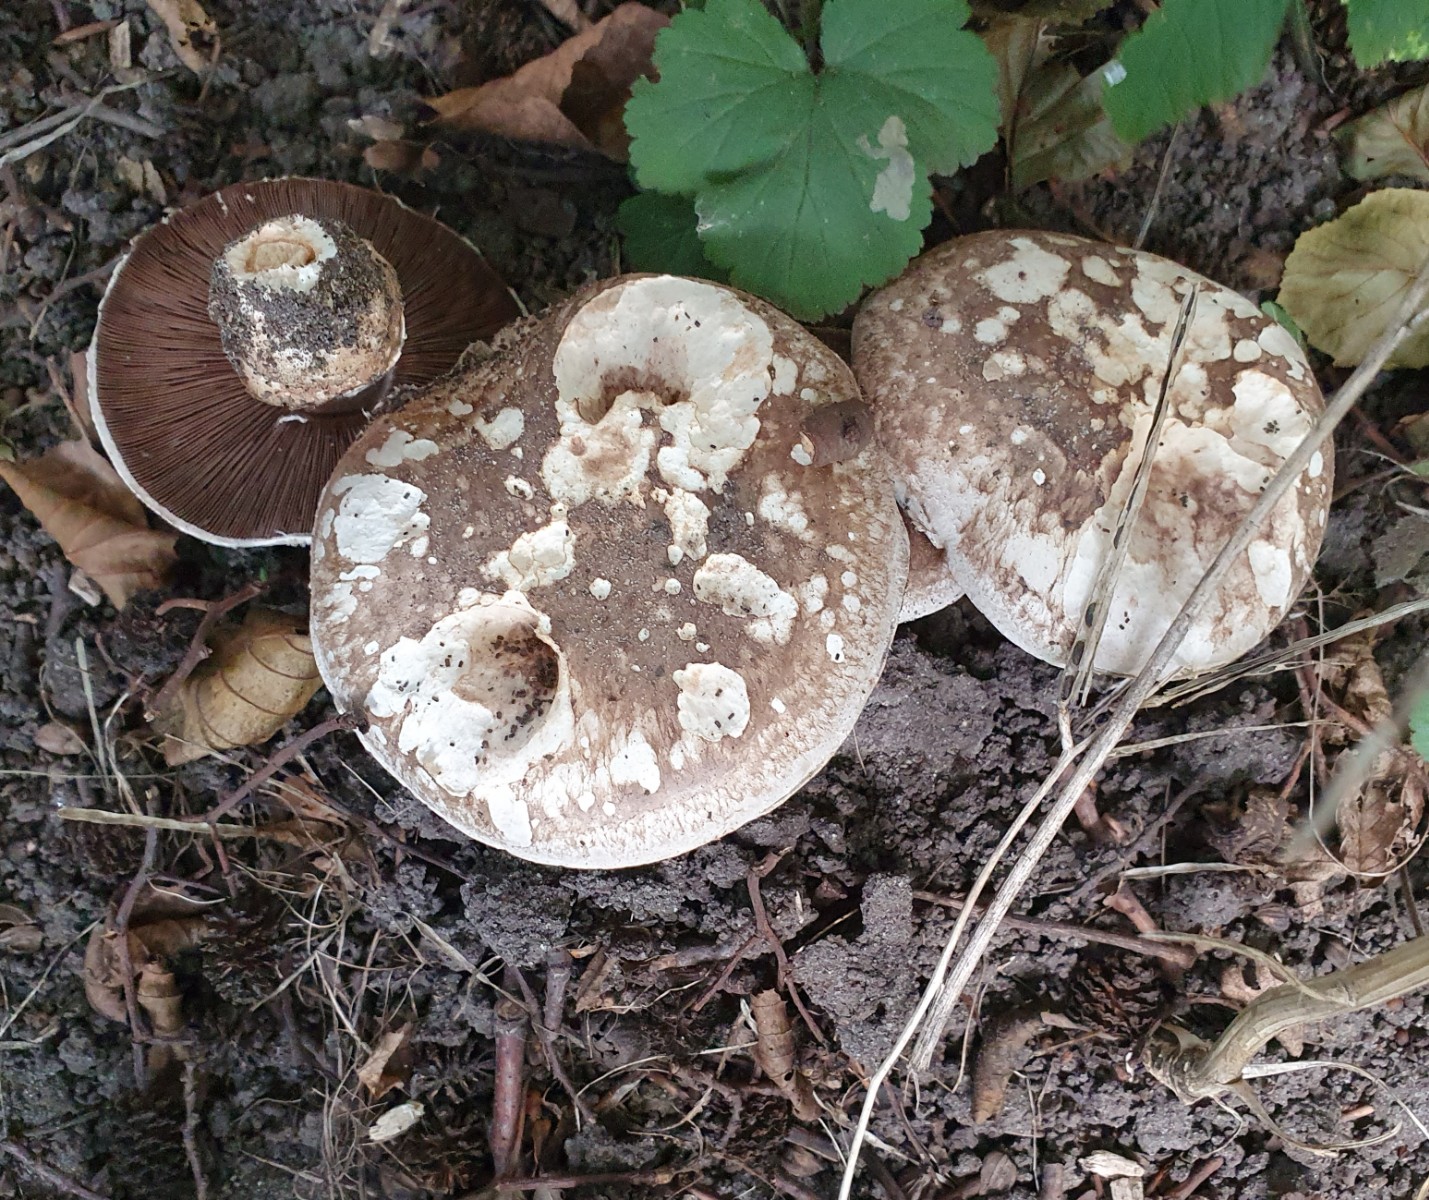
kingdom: Fungi
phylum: Basidiomycota
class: Agaricomycetes
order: Agaricales
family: Agaricaceae
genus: Agaricus
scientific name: Agaricus
